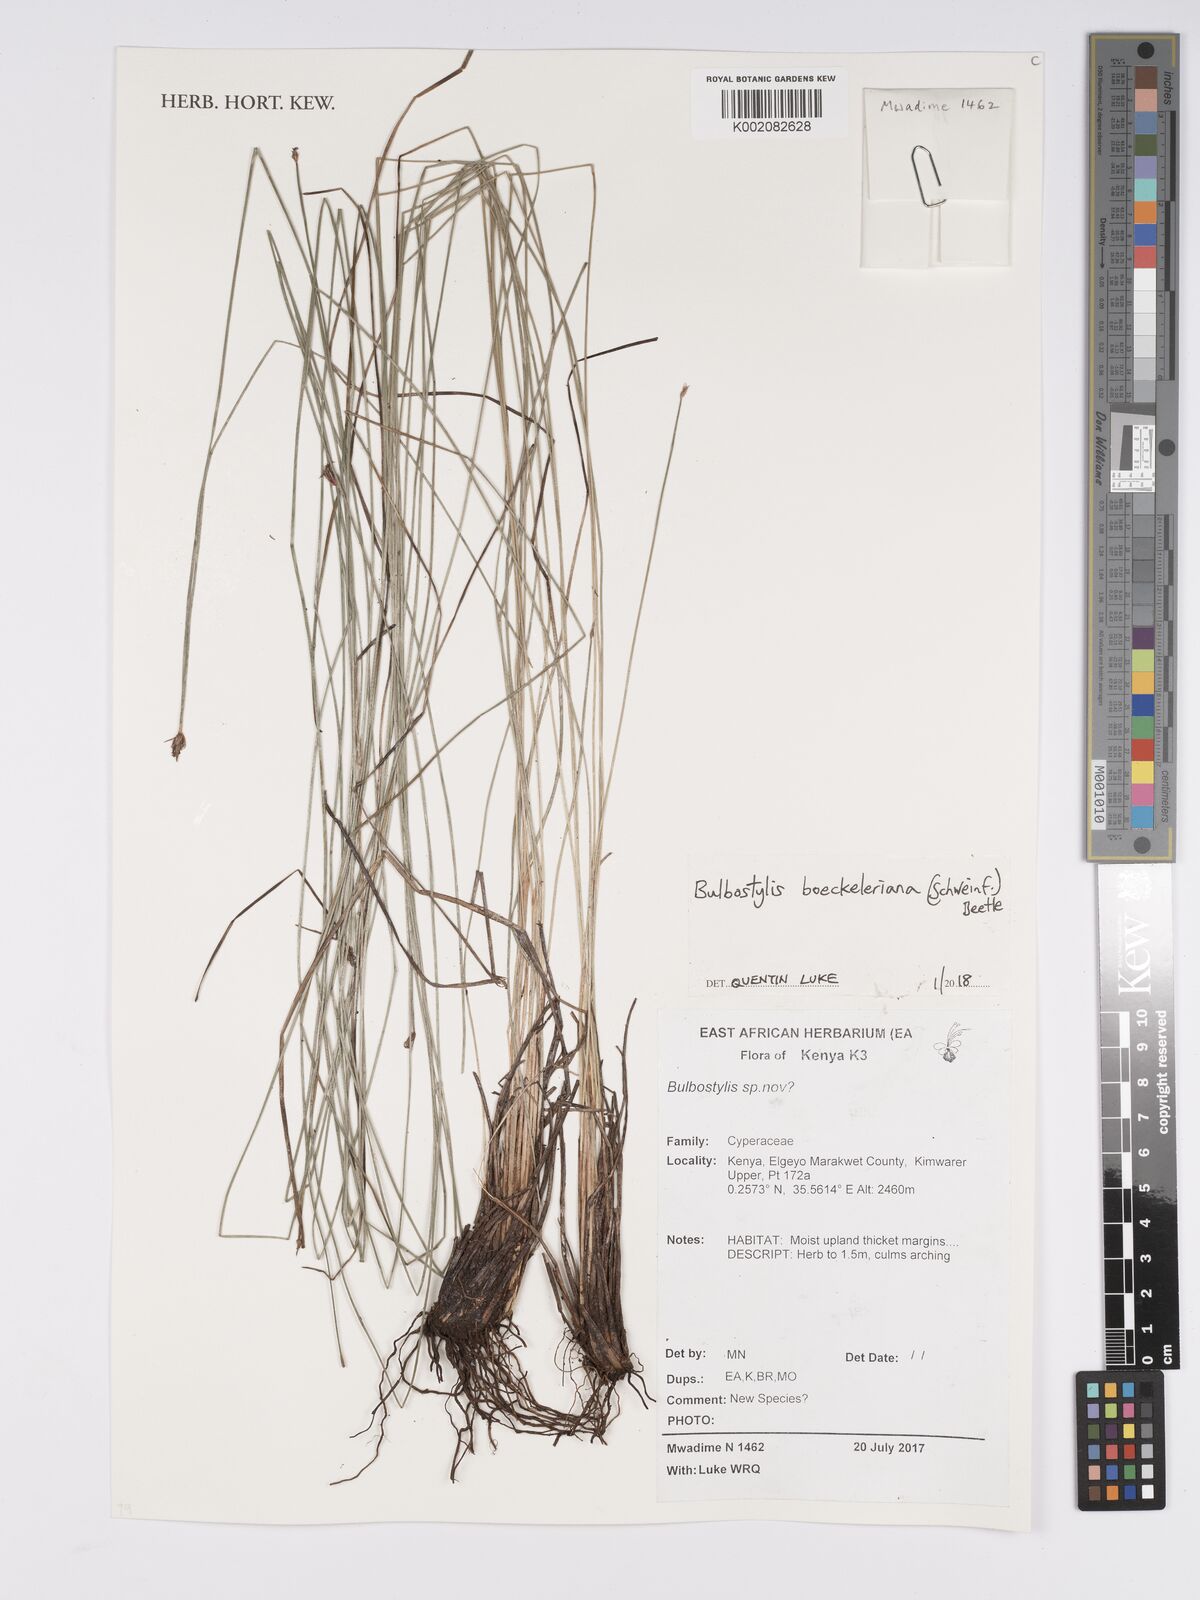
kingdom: Plantae
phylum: Tracheophyta
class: Liliopsida
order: Poales
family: Cyperaceae
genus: Bulbostylis
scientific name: Bulbostylis boeckeleriana
